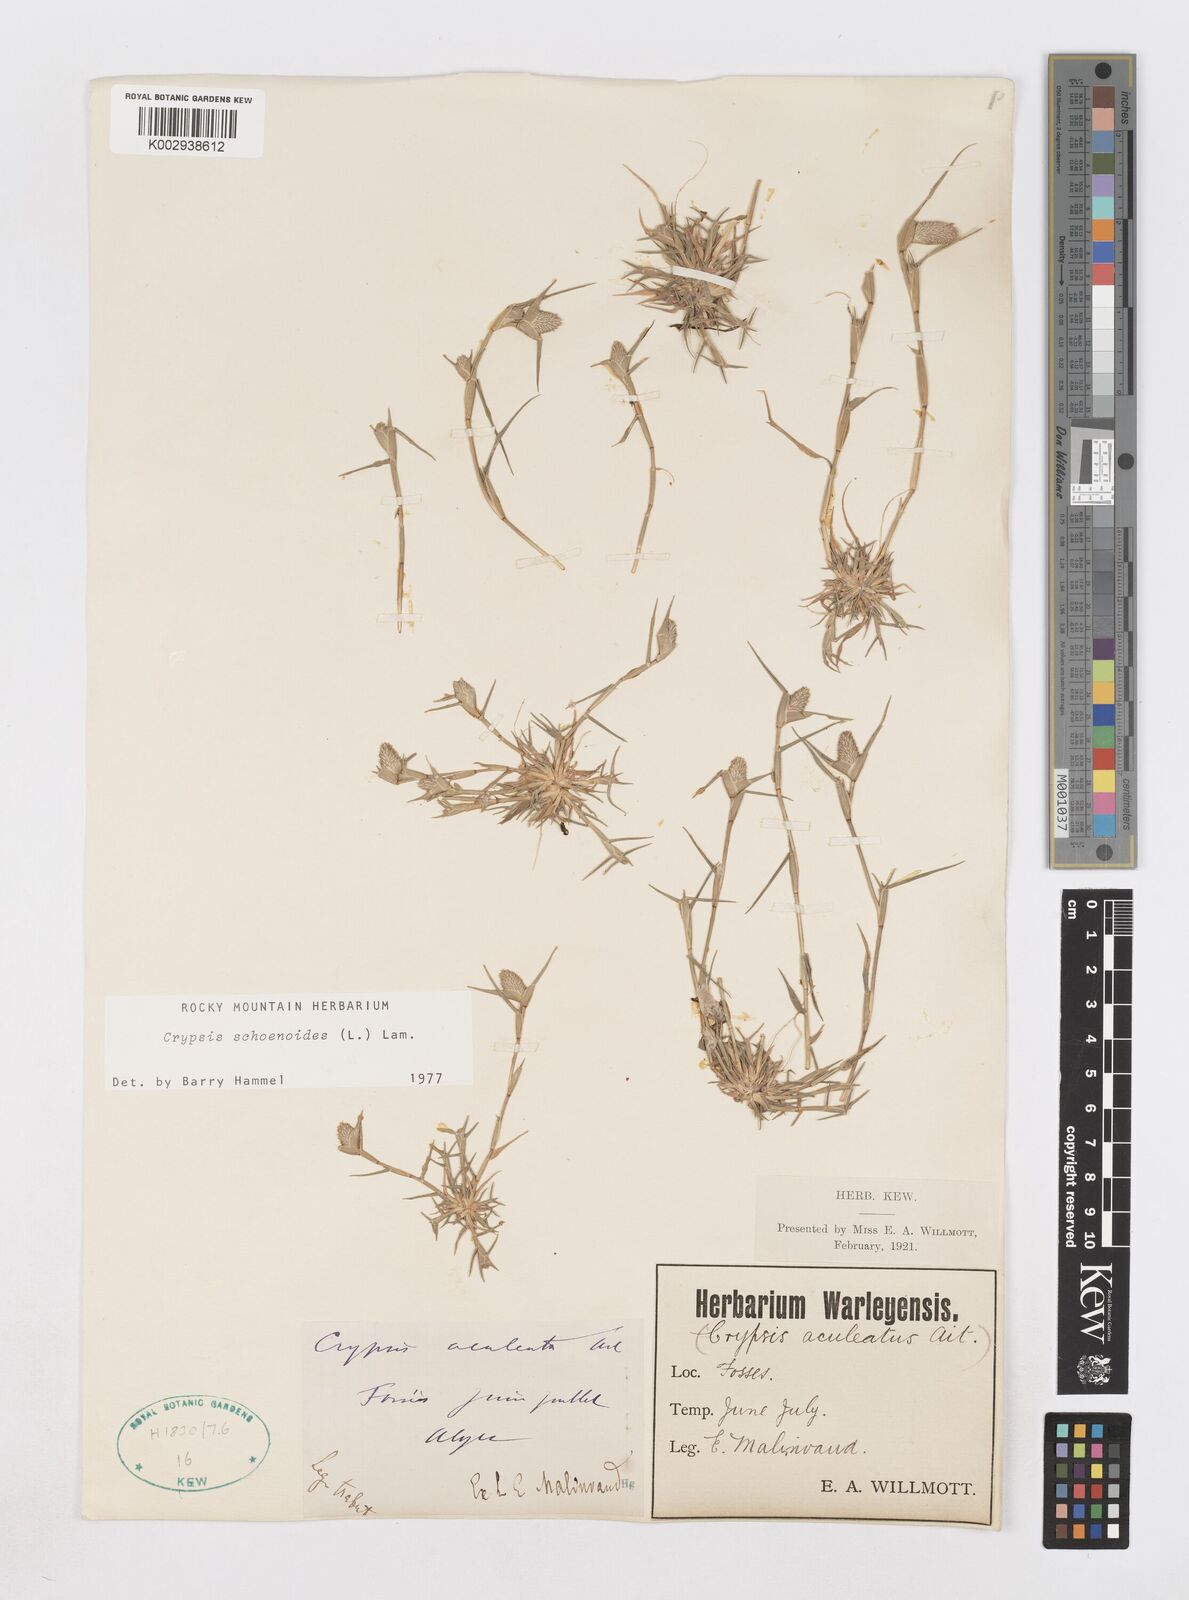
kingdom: Plantae
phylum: Tracheophyta
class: Liliopsida
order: Poales
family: Poaceae
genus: Sporobolus
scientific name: Sporobolus schoenoides
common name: Rush-like timothy
